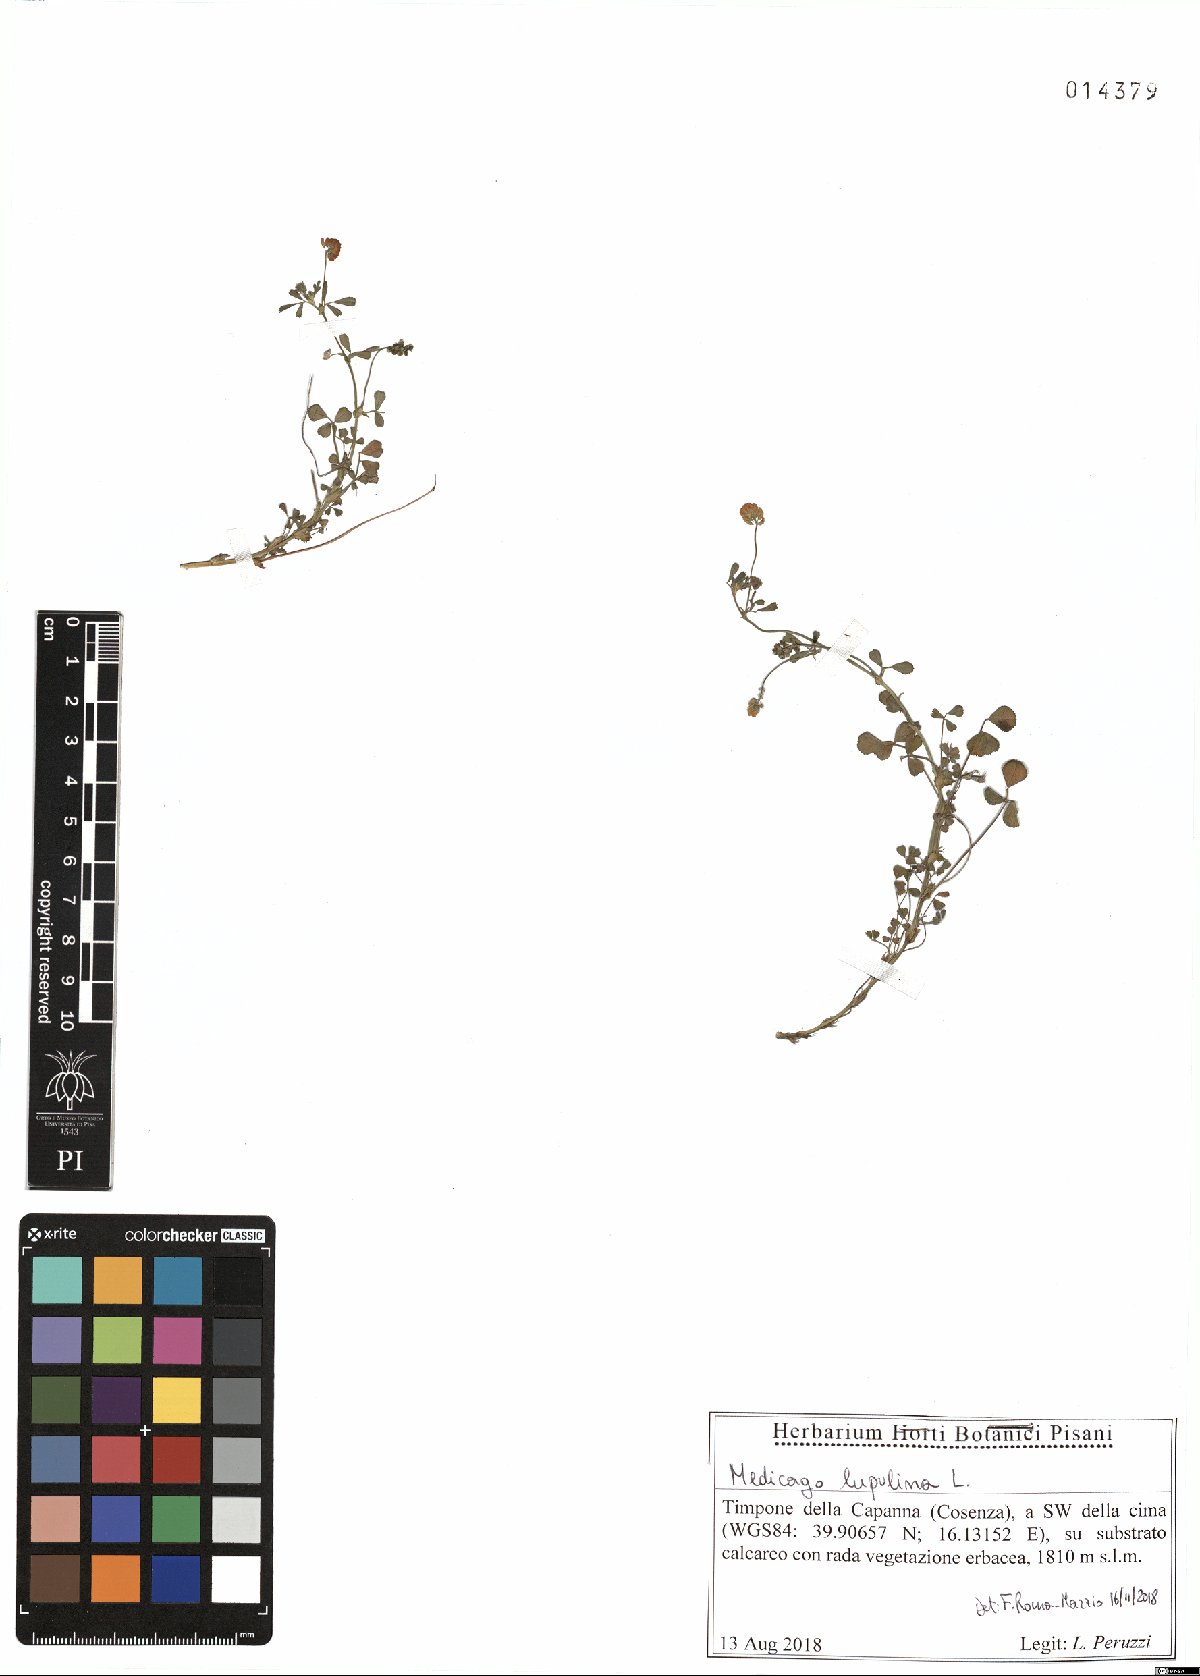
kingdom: Plantae
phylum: Tracheophyta
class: Magnoliopsida
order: Fabales
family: Fabaceae
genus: Medicago
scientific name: Medicago lupulina
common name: Black medick
